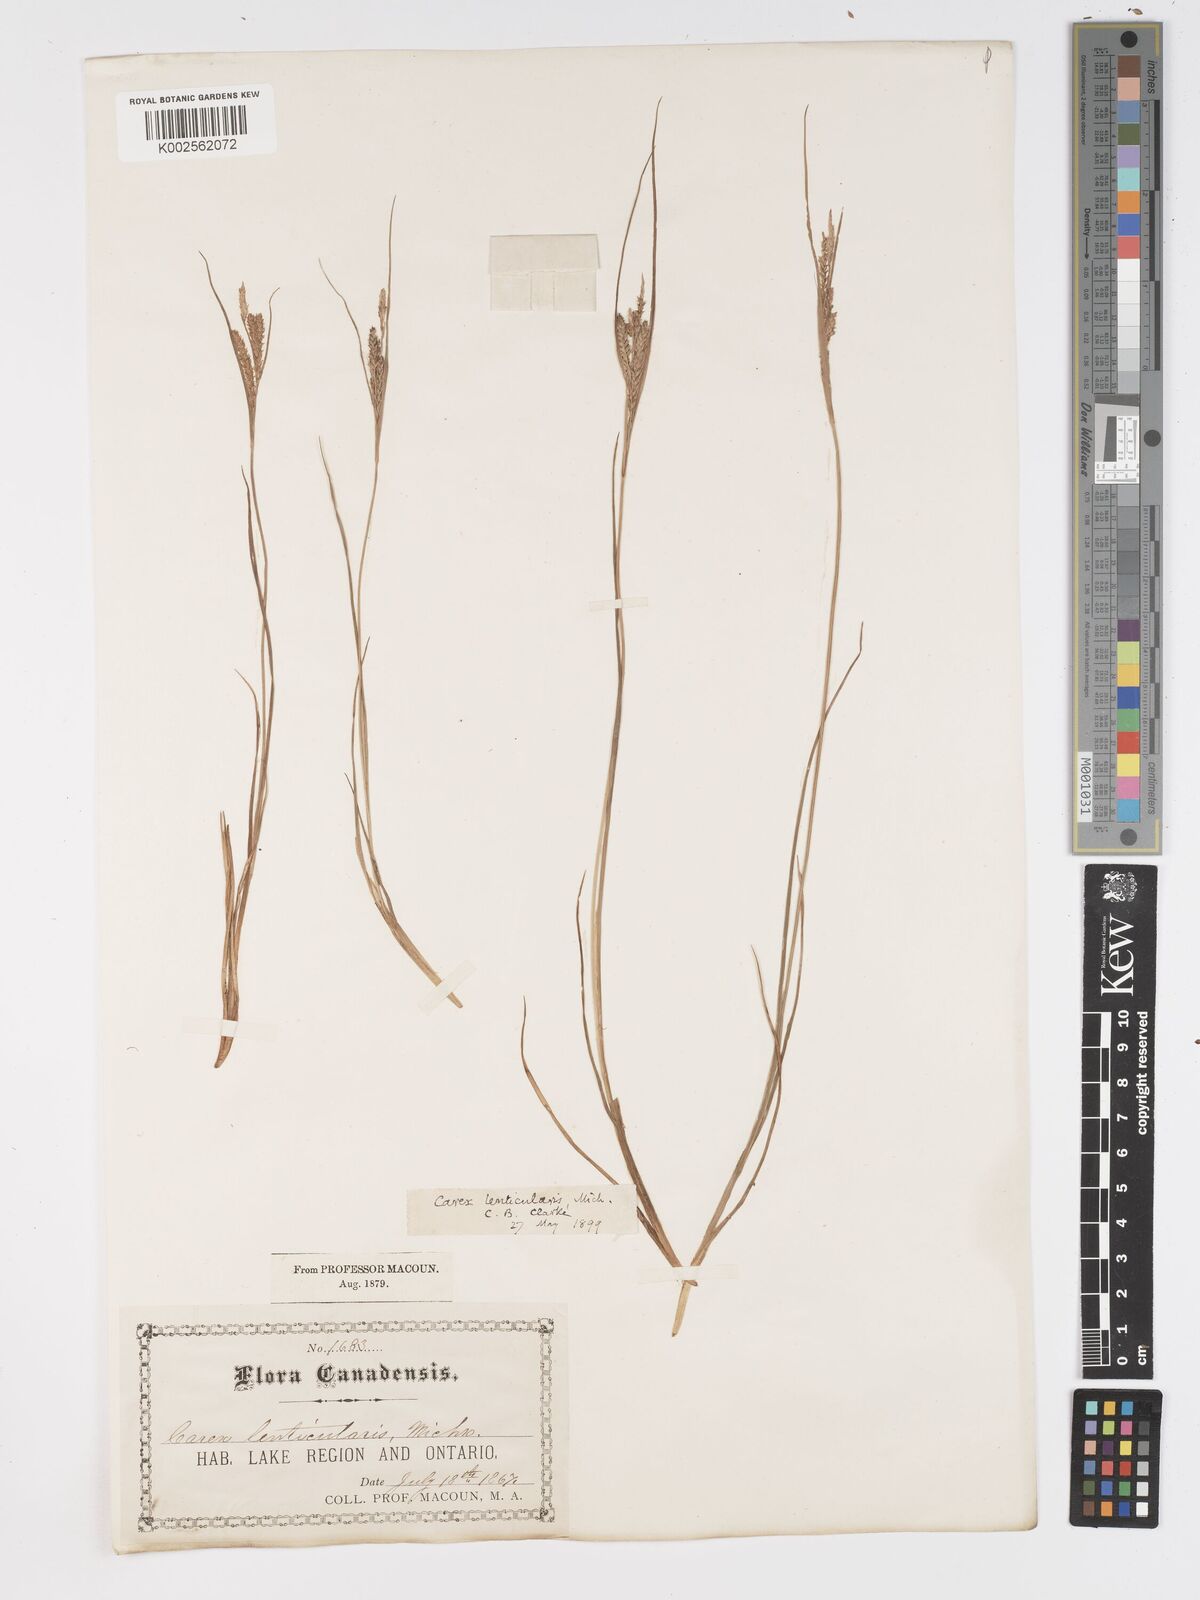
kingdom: Plantae
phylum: Tracheophyta
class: Liliopsida
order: Poales
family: Cyperaceae
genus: Carex
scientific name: Carex lenticularis
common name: Lakeshore sedge
